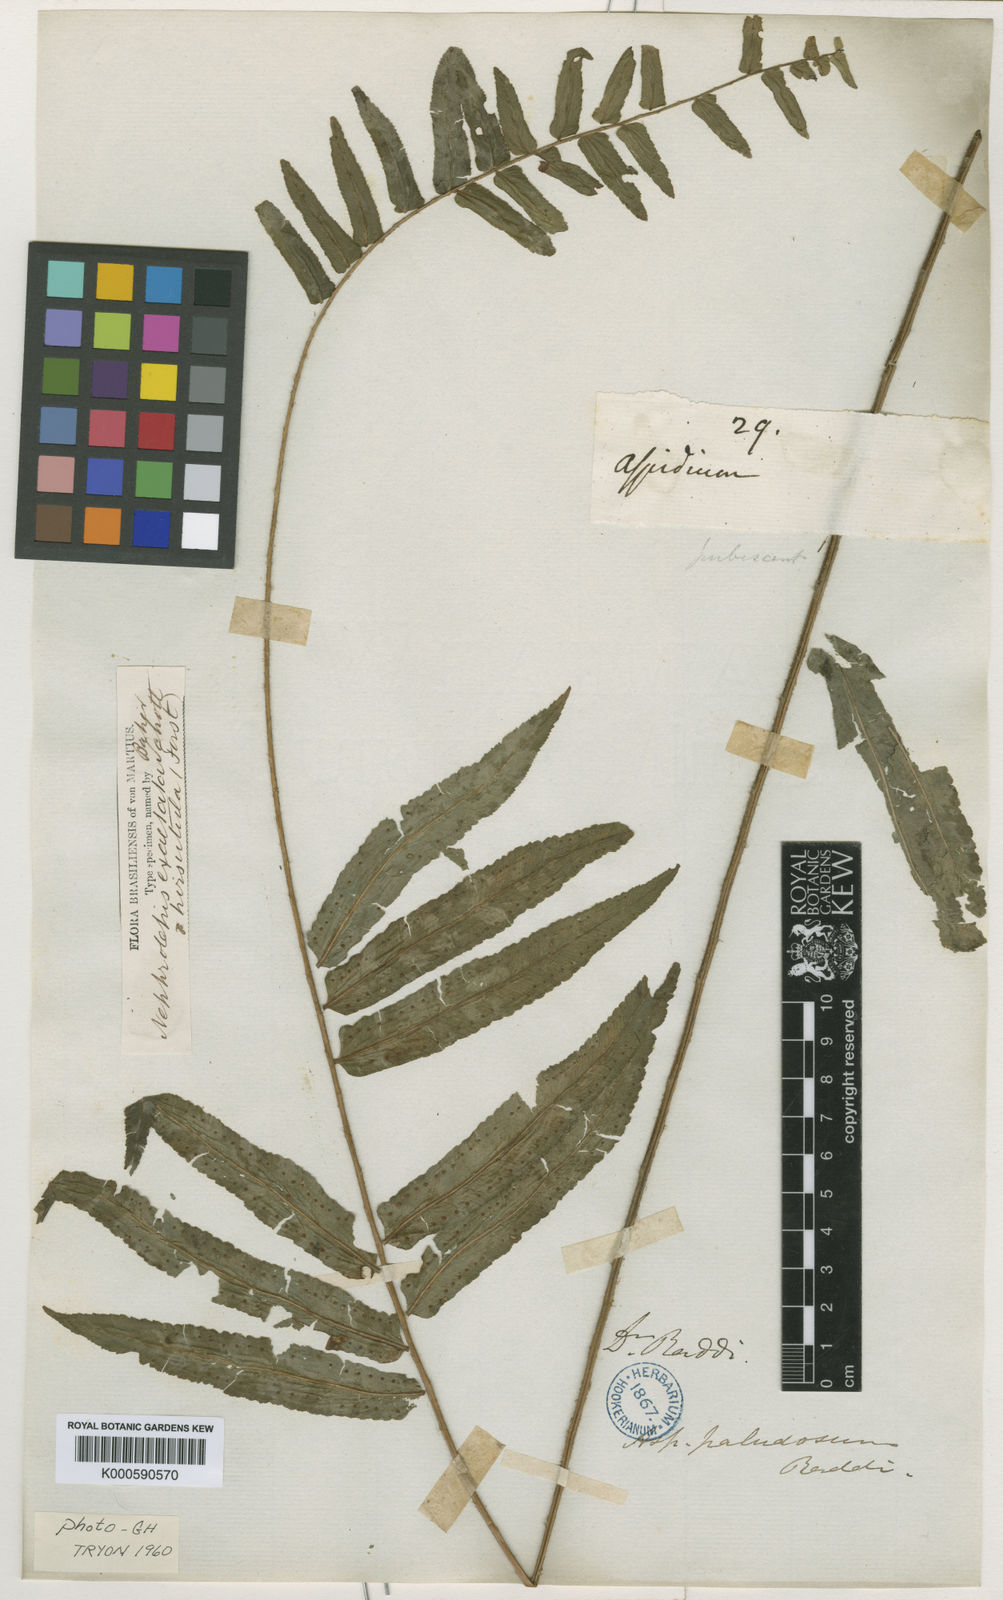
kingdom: Plantae
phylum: Tracheophyta
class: Polypodiopsida
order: Polypodiales
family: Nephrolepidaceae
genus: Nephrolepis
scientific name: Nephrolepis biserrata
